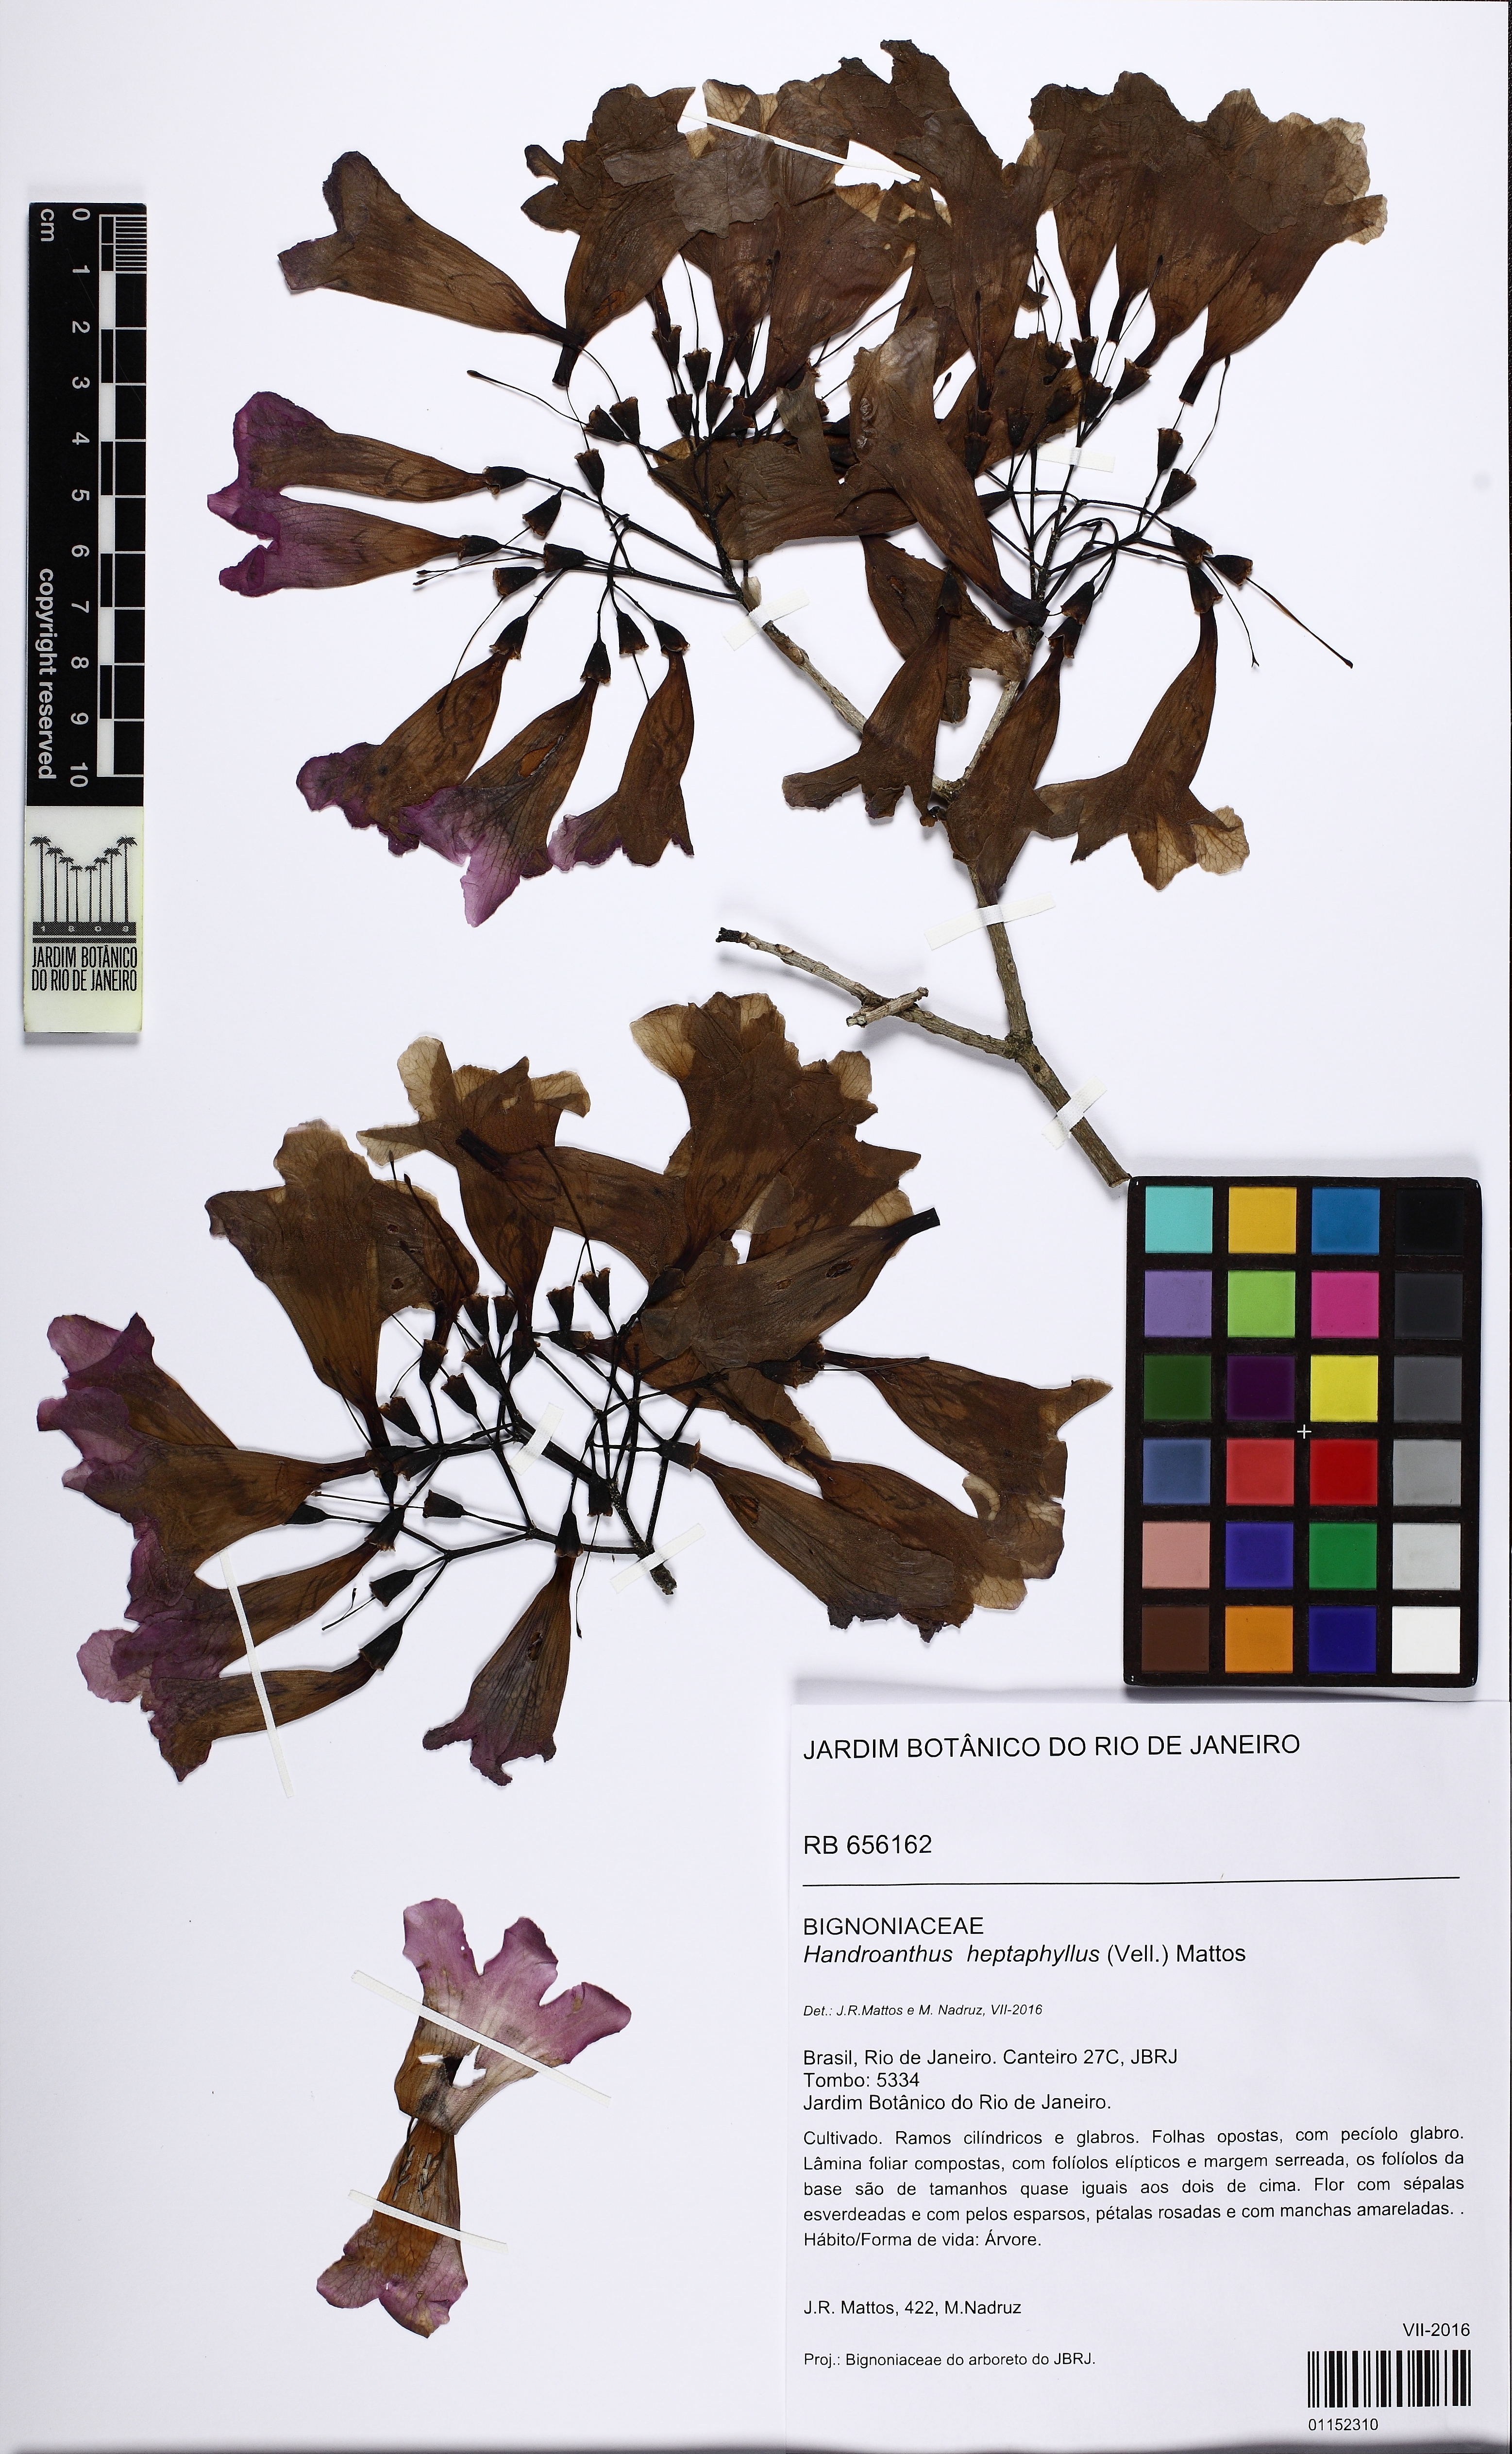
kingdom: Plantae
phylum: Tracheophyta
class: Magnoliopsida
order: Lamiales
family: Bignoniaceae
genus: Handroanthus
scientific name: Handroanthus heptaphyllus
